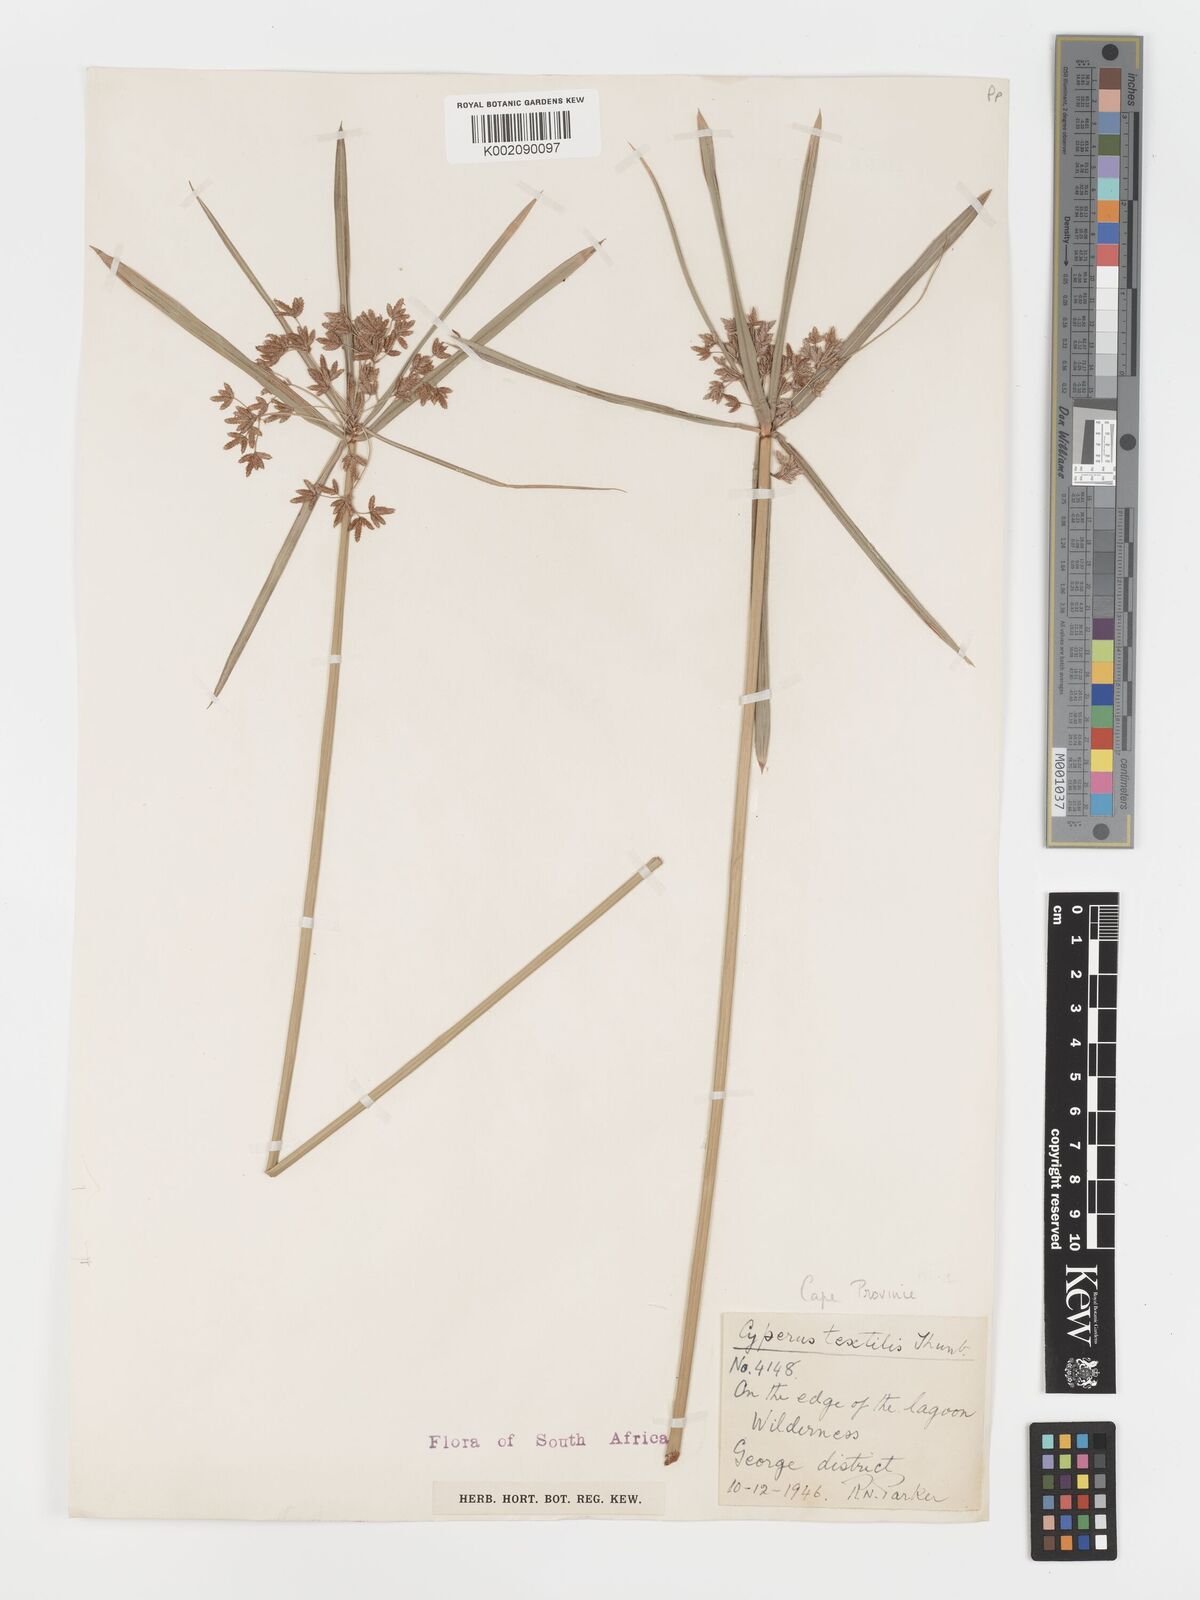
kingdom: Plantae
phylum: Tracheophyta
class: Liliopsida
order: Poales
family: Cyperaceae
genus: Cyperus
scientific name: Cyperus alternifolius
